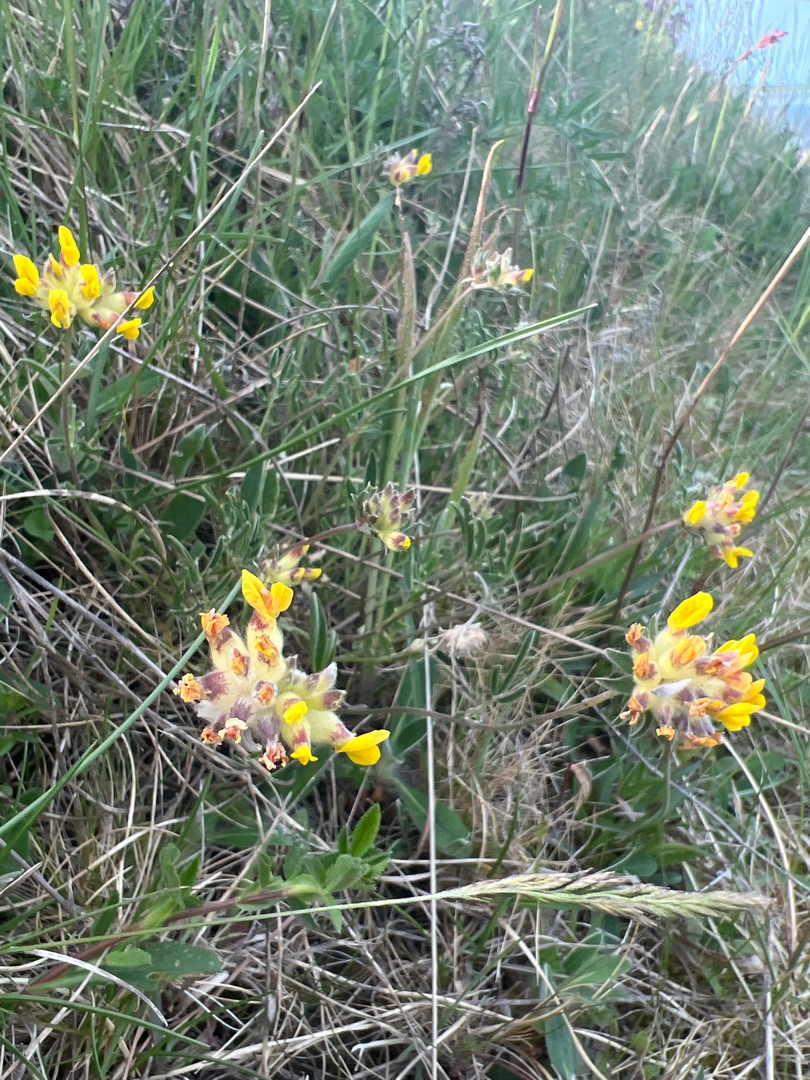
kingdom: Plantae
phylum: Tracheophyta
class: Magnoliopsida
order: Fabales
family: Fabaceae
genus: Anthyllis
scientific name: Anthyllis vulneraria
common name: Rundbælg
